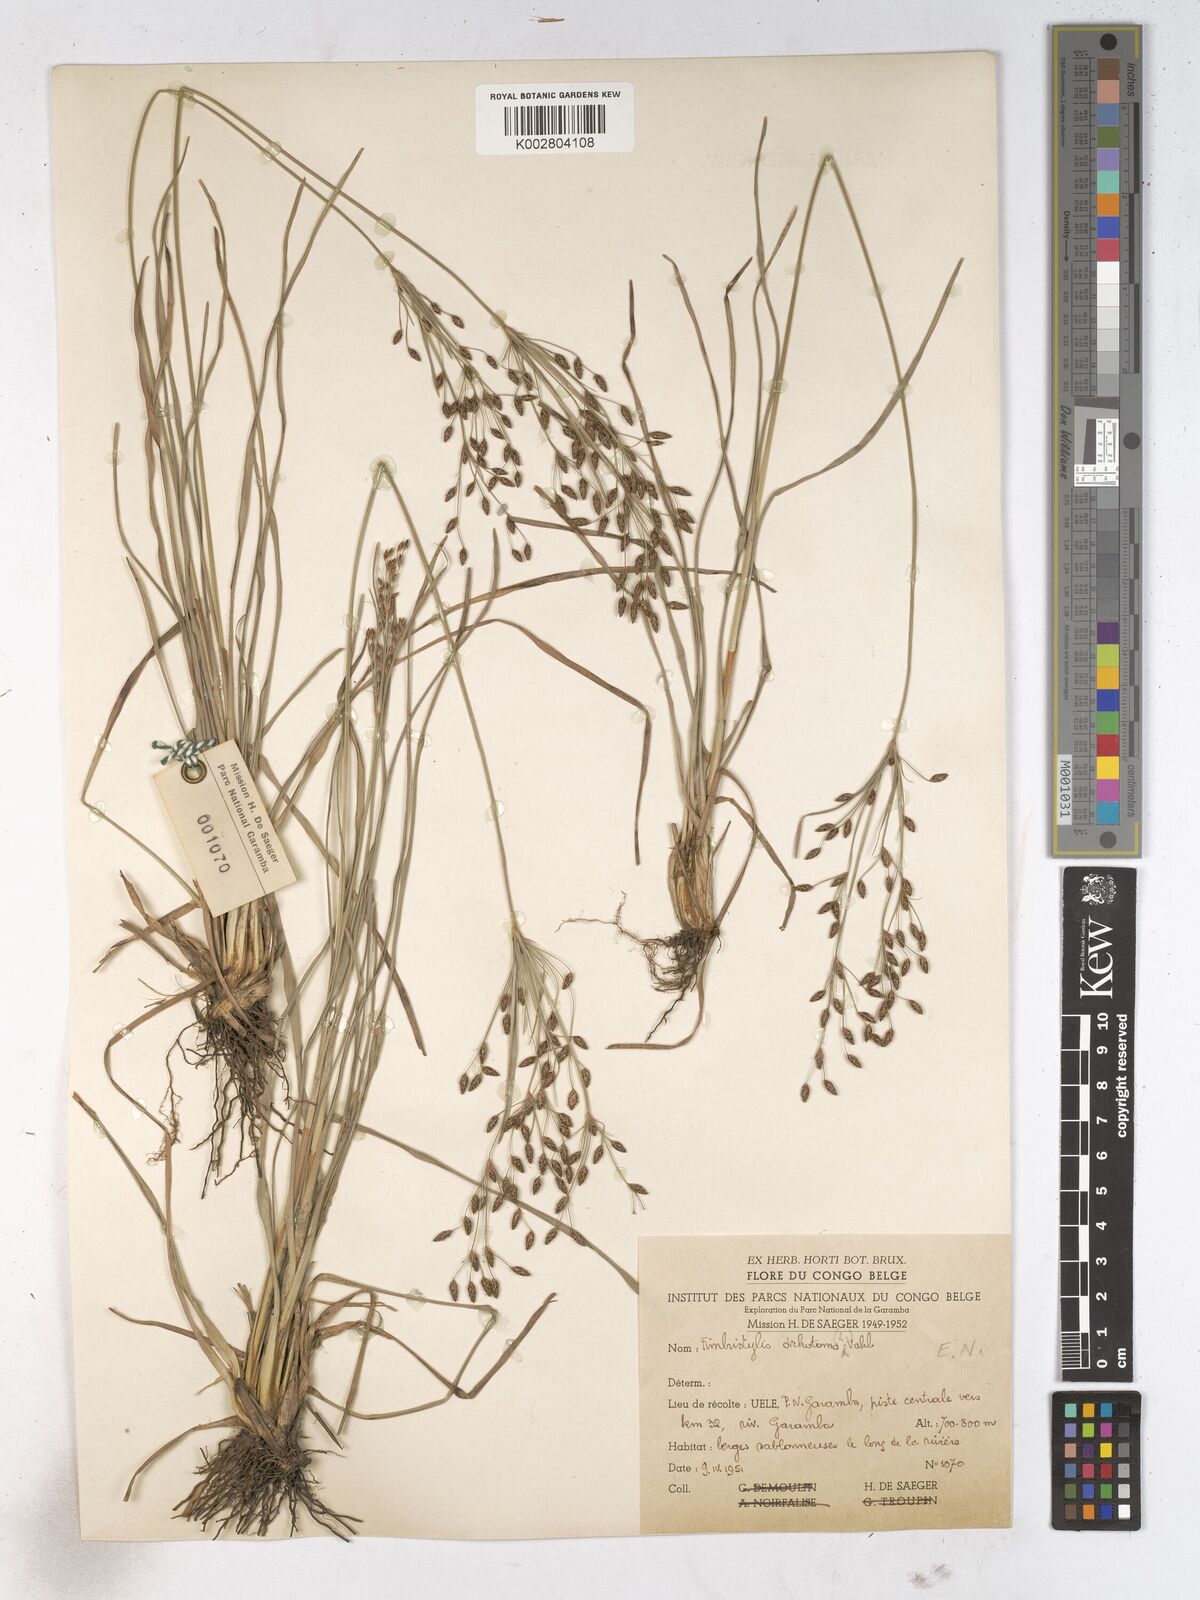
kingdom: Plantae
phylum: Tracheophyta
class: Liliopsida
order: Poales
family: Cyperaceae
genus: Fimbristylis
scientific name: Fimbristylis dichotoma
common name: Forked fimbry
